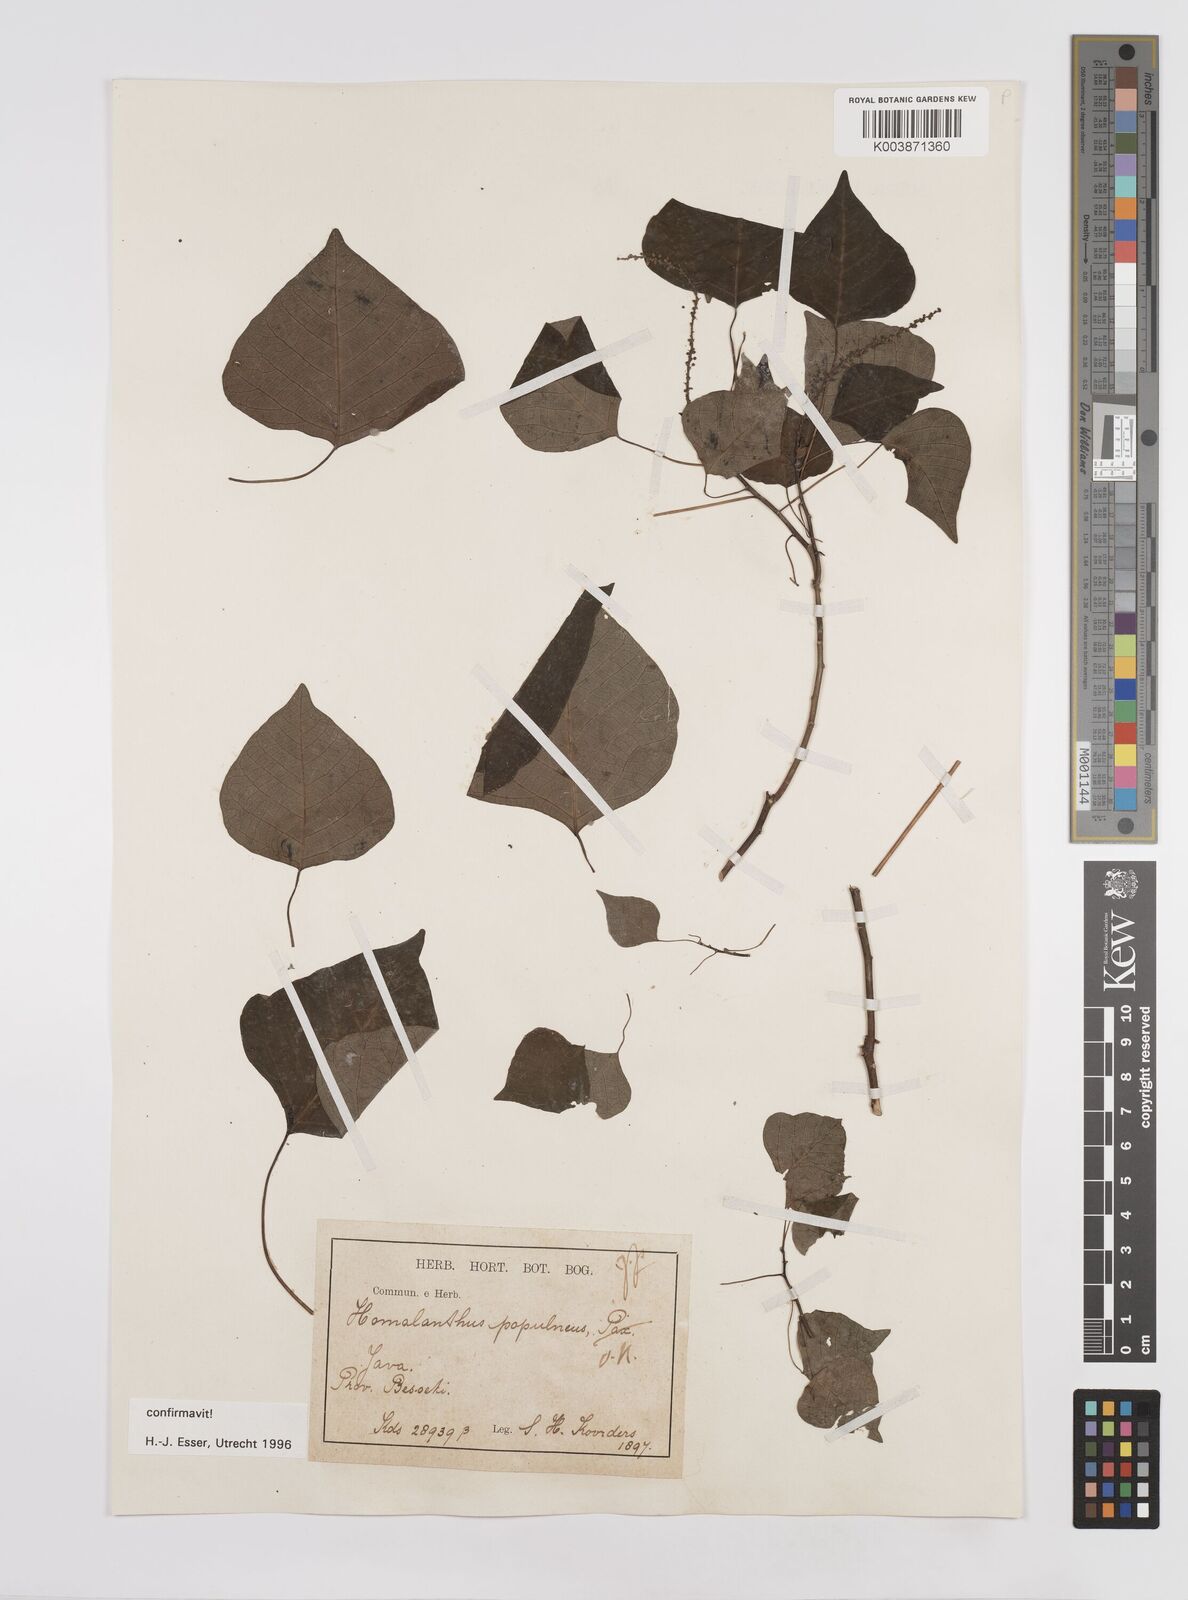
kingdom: Plantae
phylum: Tracheophyta
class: Magnoliopsida
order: Malpighiales
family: Euphorbiaceae
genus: Homalanthus
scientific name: Homalanthus populneus
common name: Spurge
